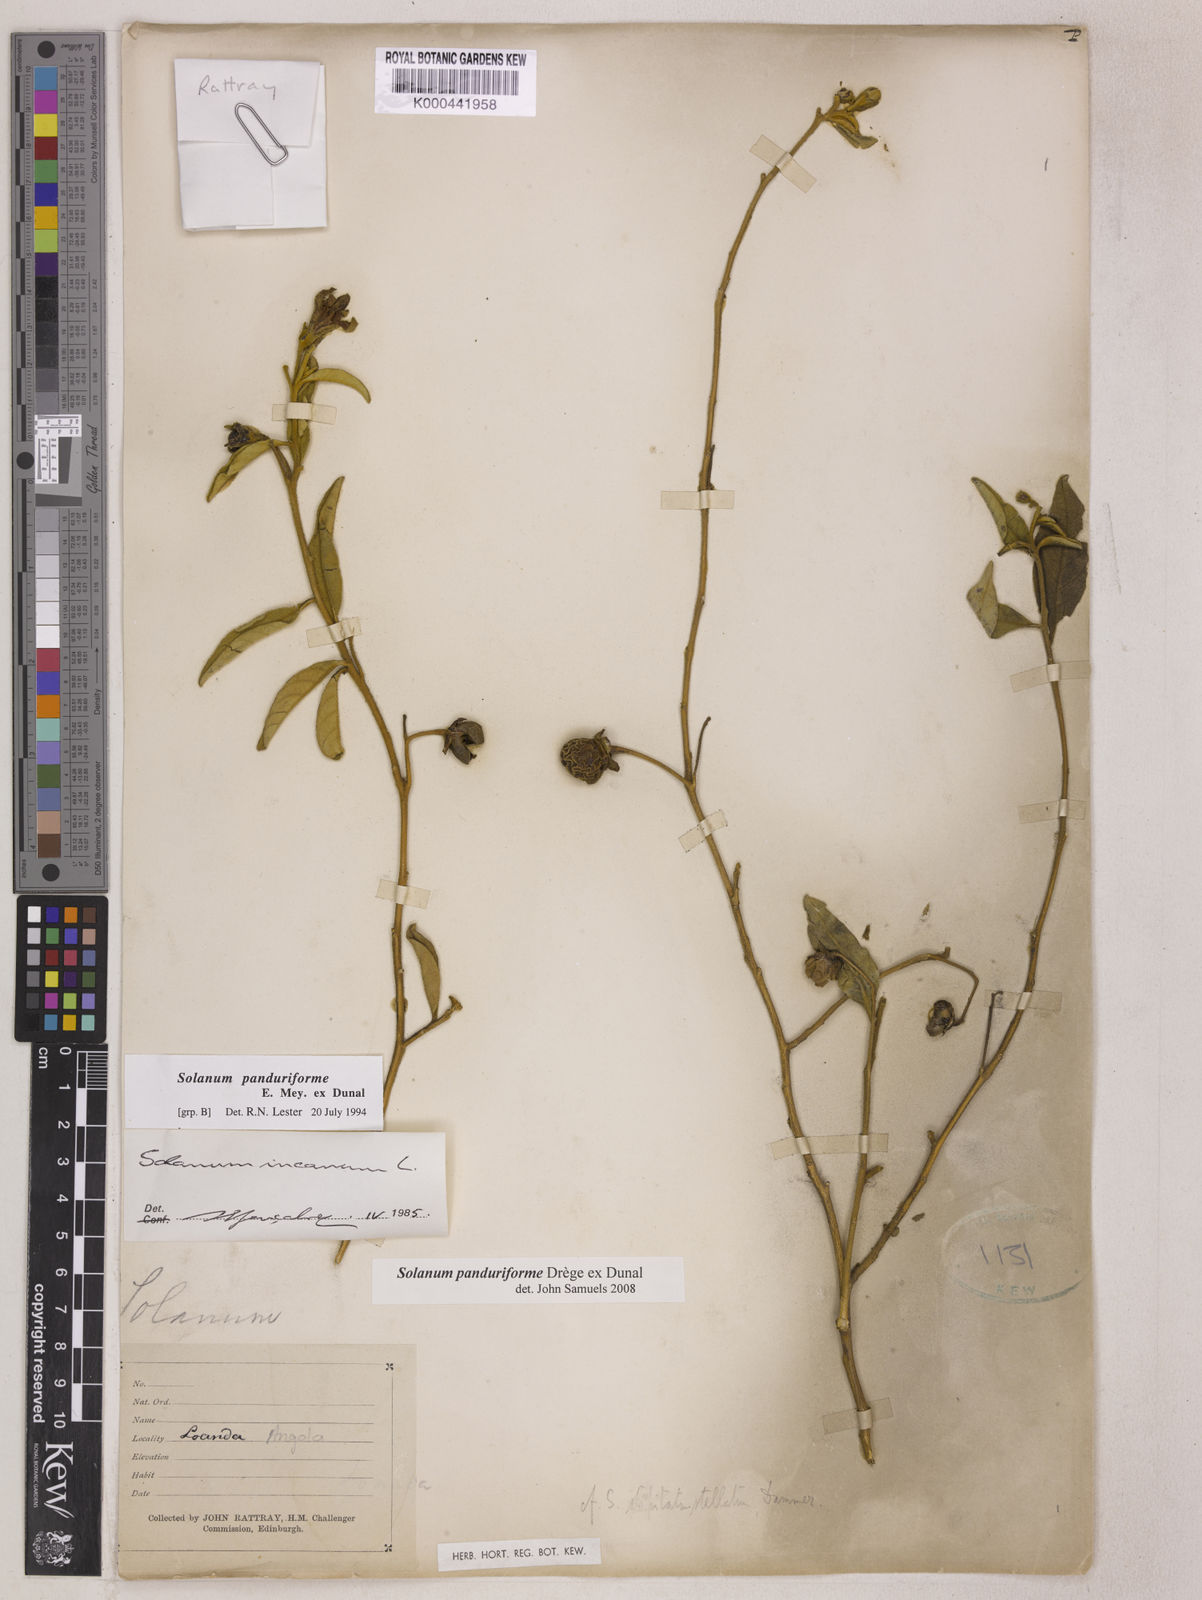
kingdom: Plantae
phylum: Tracheophyta
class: Magnoliopsida
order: Solanales
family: Solanaceae
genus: Solanum
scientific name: Solanum campylacanthum
